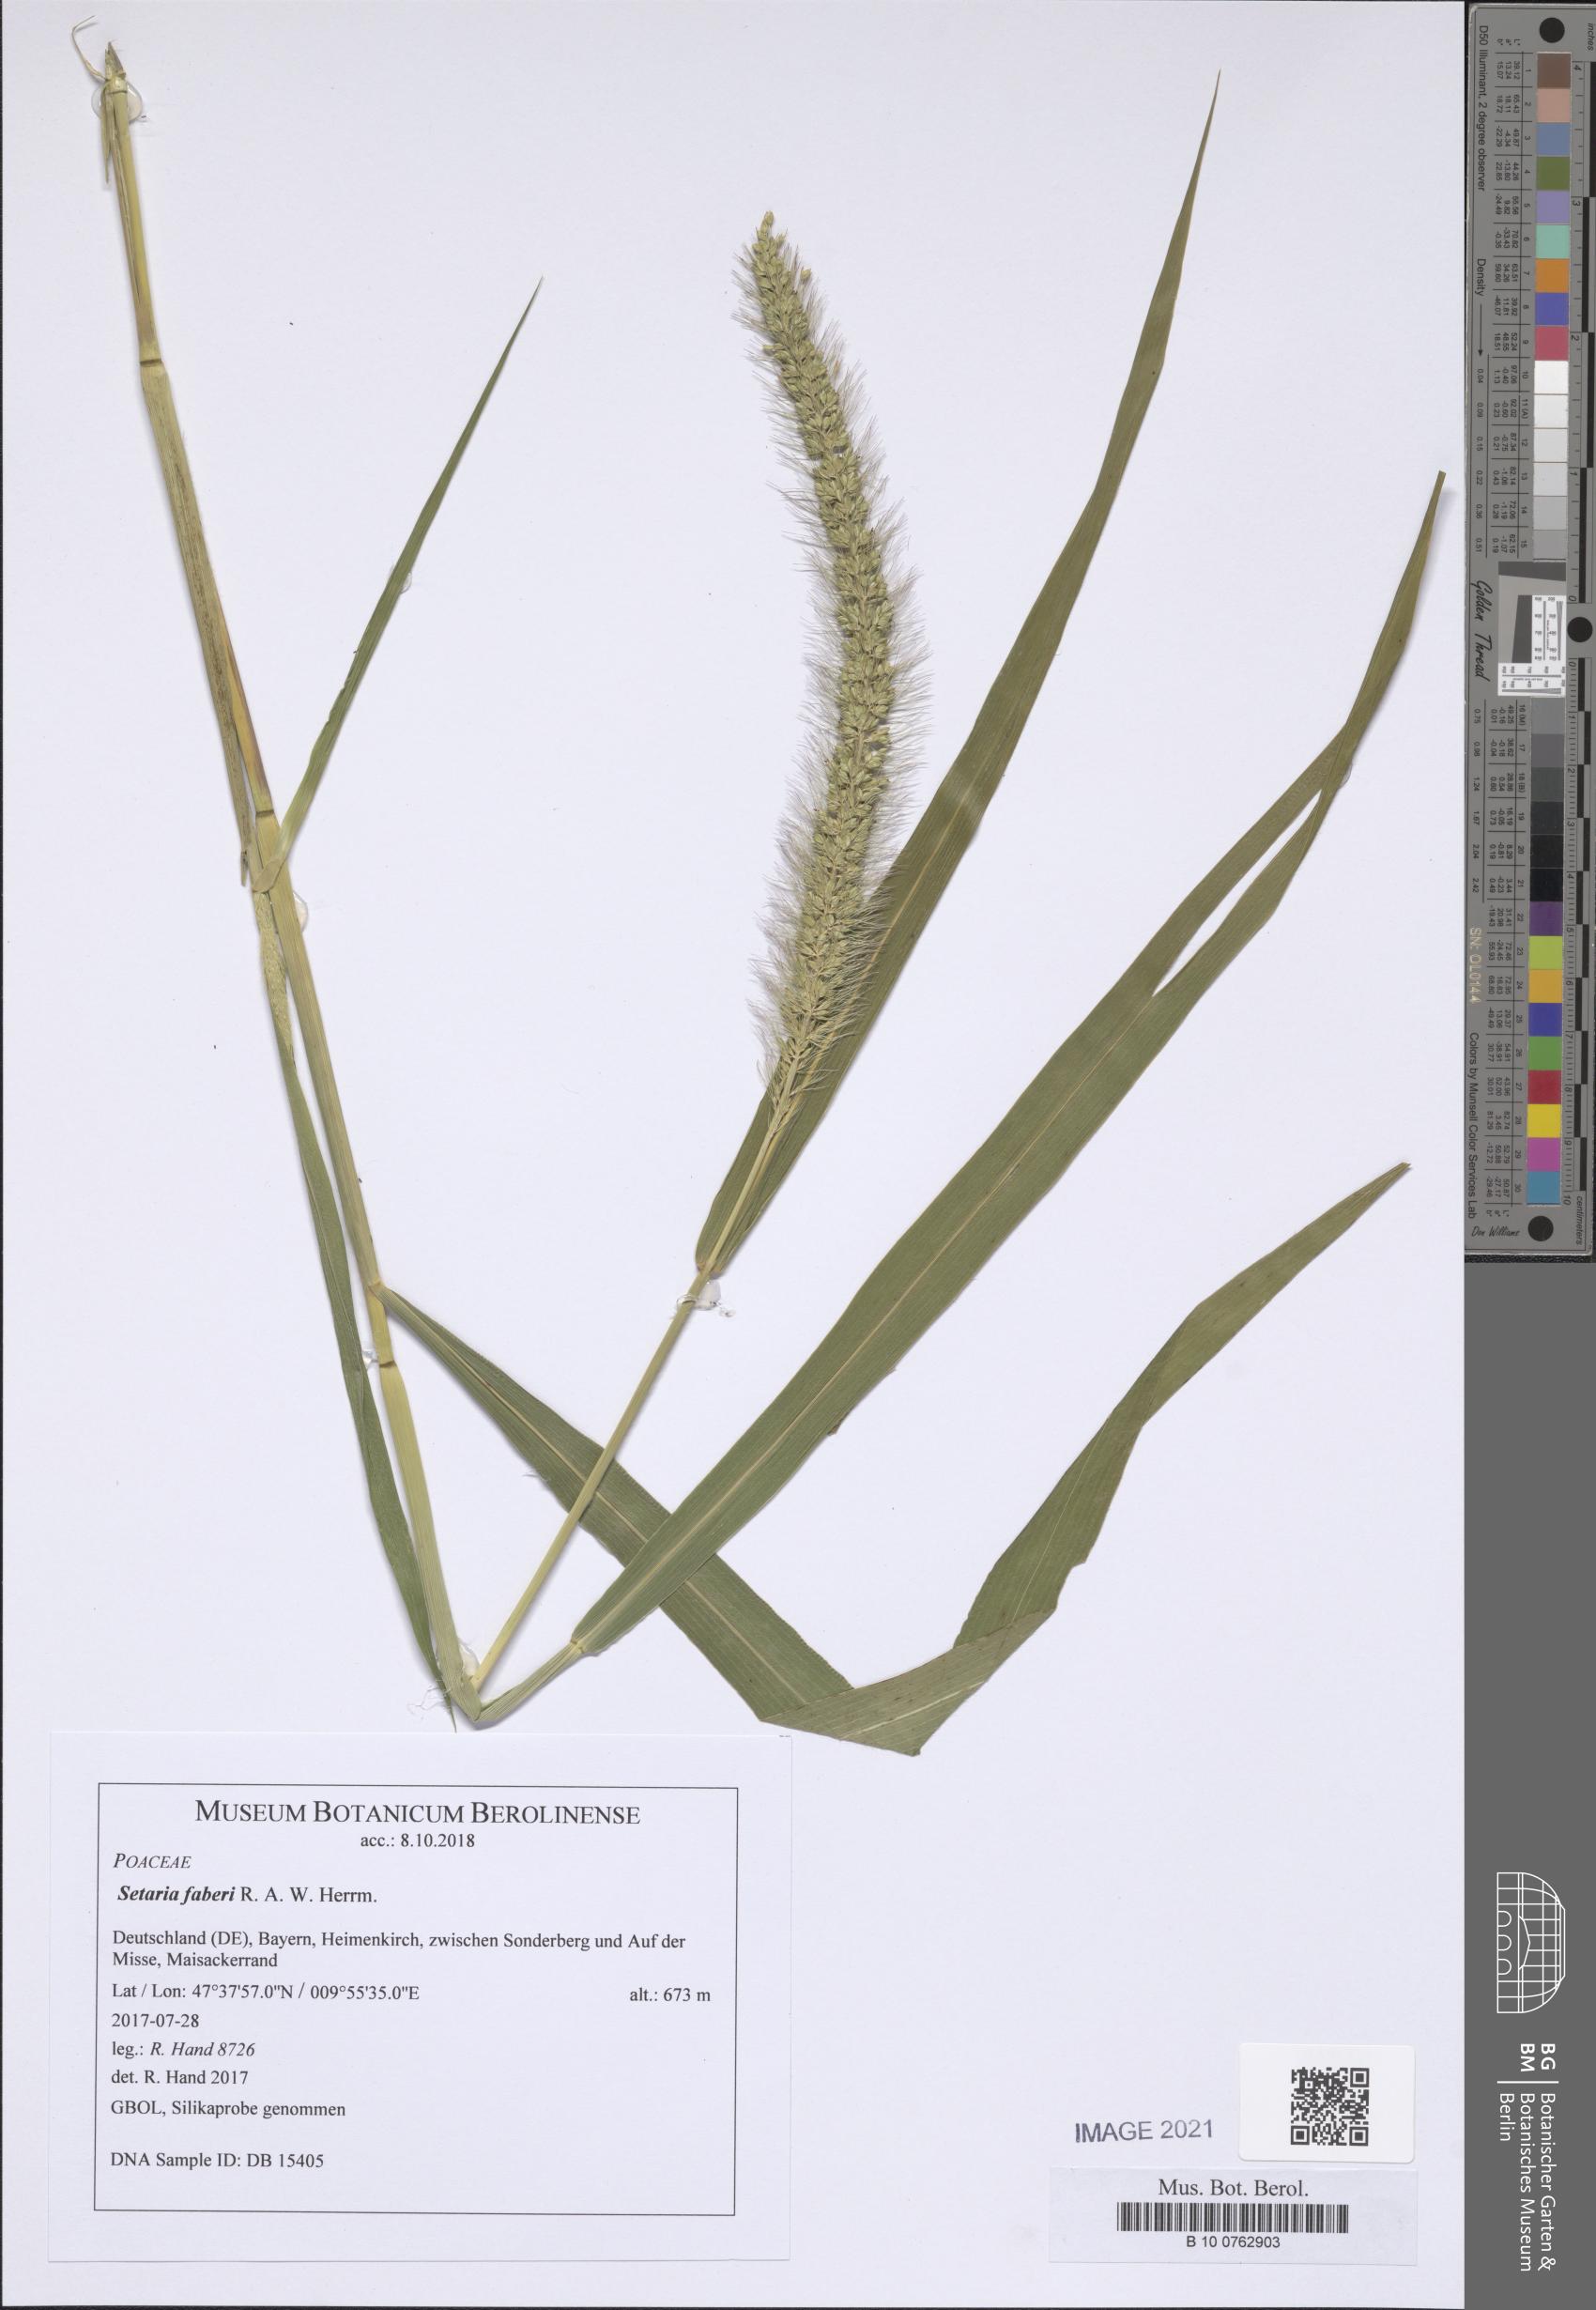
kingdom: Plantae
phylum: Tracheophyta
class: Liliopsida
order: Poales
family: Poaceae
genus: Setaria
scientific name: Setaria faberi
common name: Nodding bristle-grass
